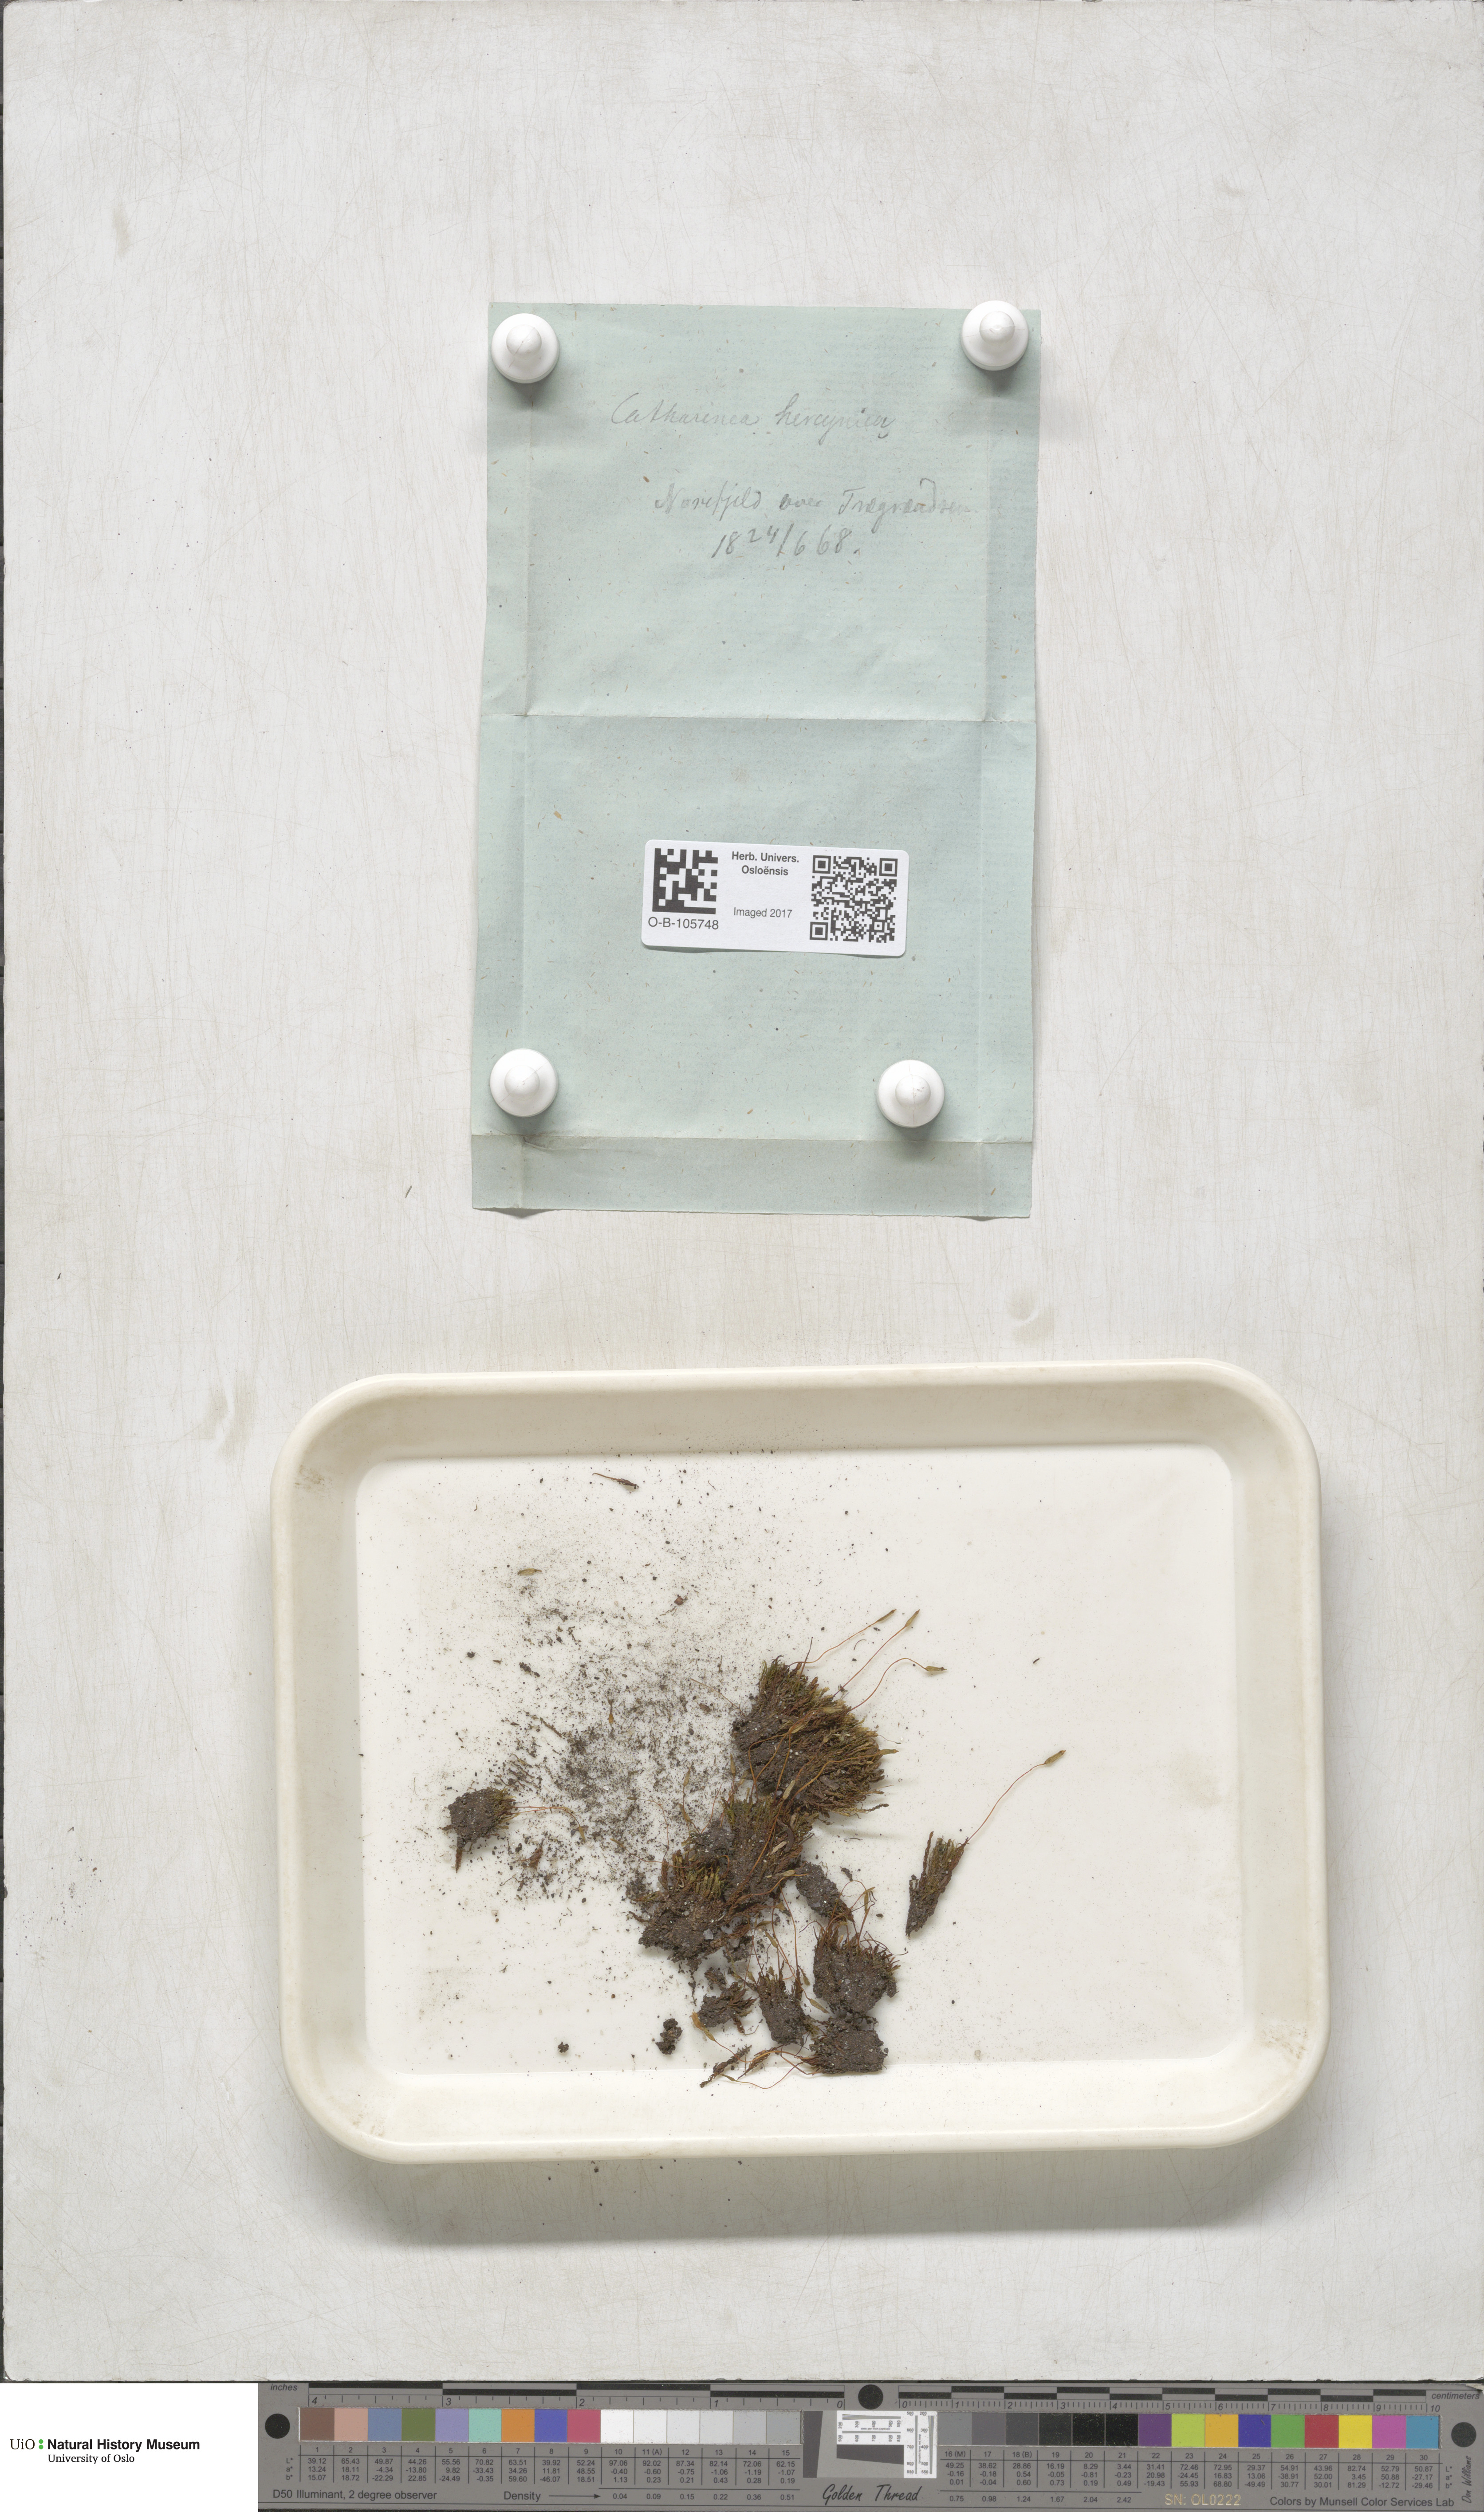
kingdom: Plantae
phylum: Bryophyta
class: Polytrichopsida
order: Polytrichales
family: Polytrichaceae
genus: Oligotrichum
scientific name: Oligotrichum hercynicum
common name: Hercynian hair moss
